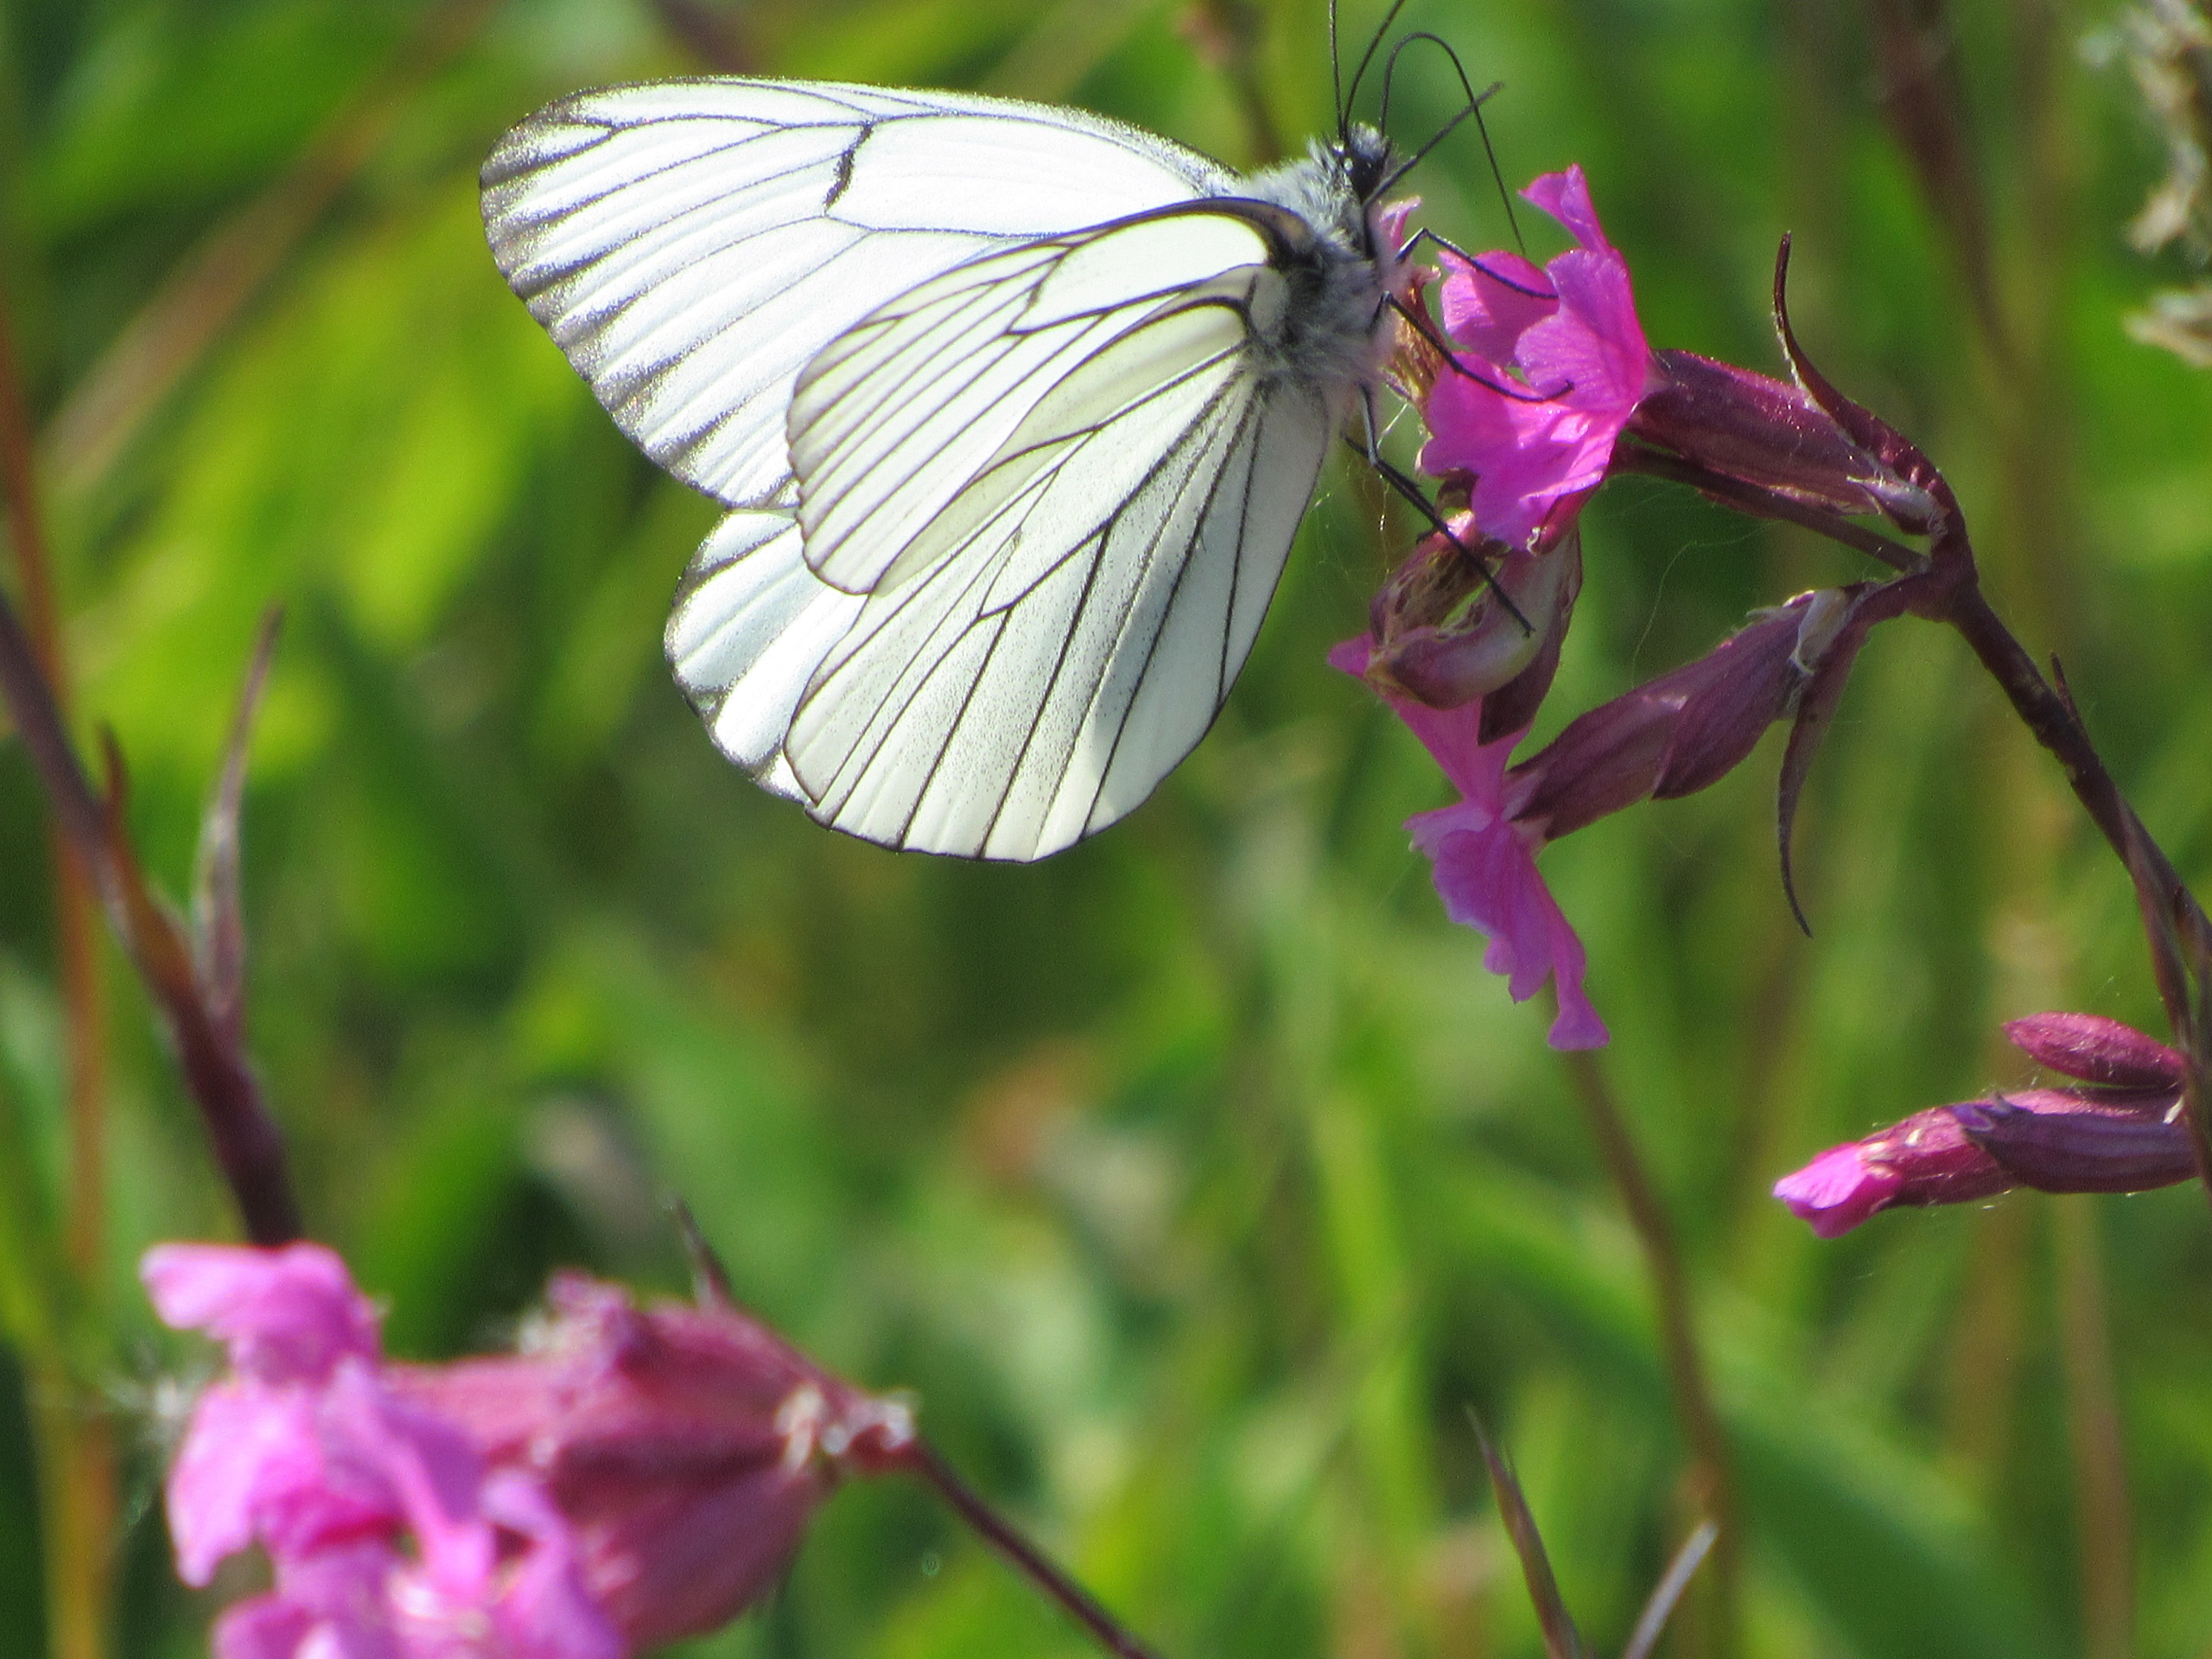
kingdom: Animalia
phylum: Arthropoda
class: Insecta
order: Lepidoptera
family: Pieridae
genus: Aporia
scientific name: Aporia crataegi
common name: Sortåret hvidvinge
